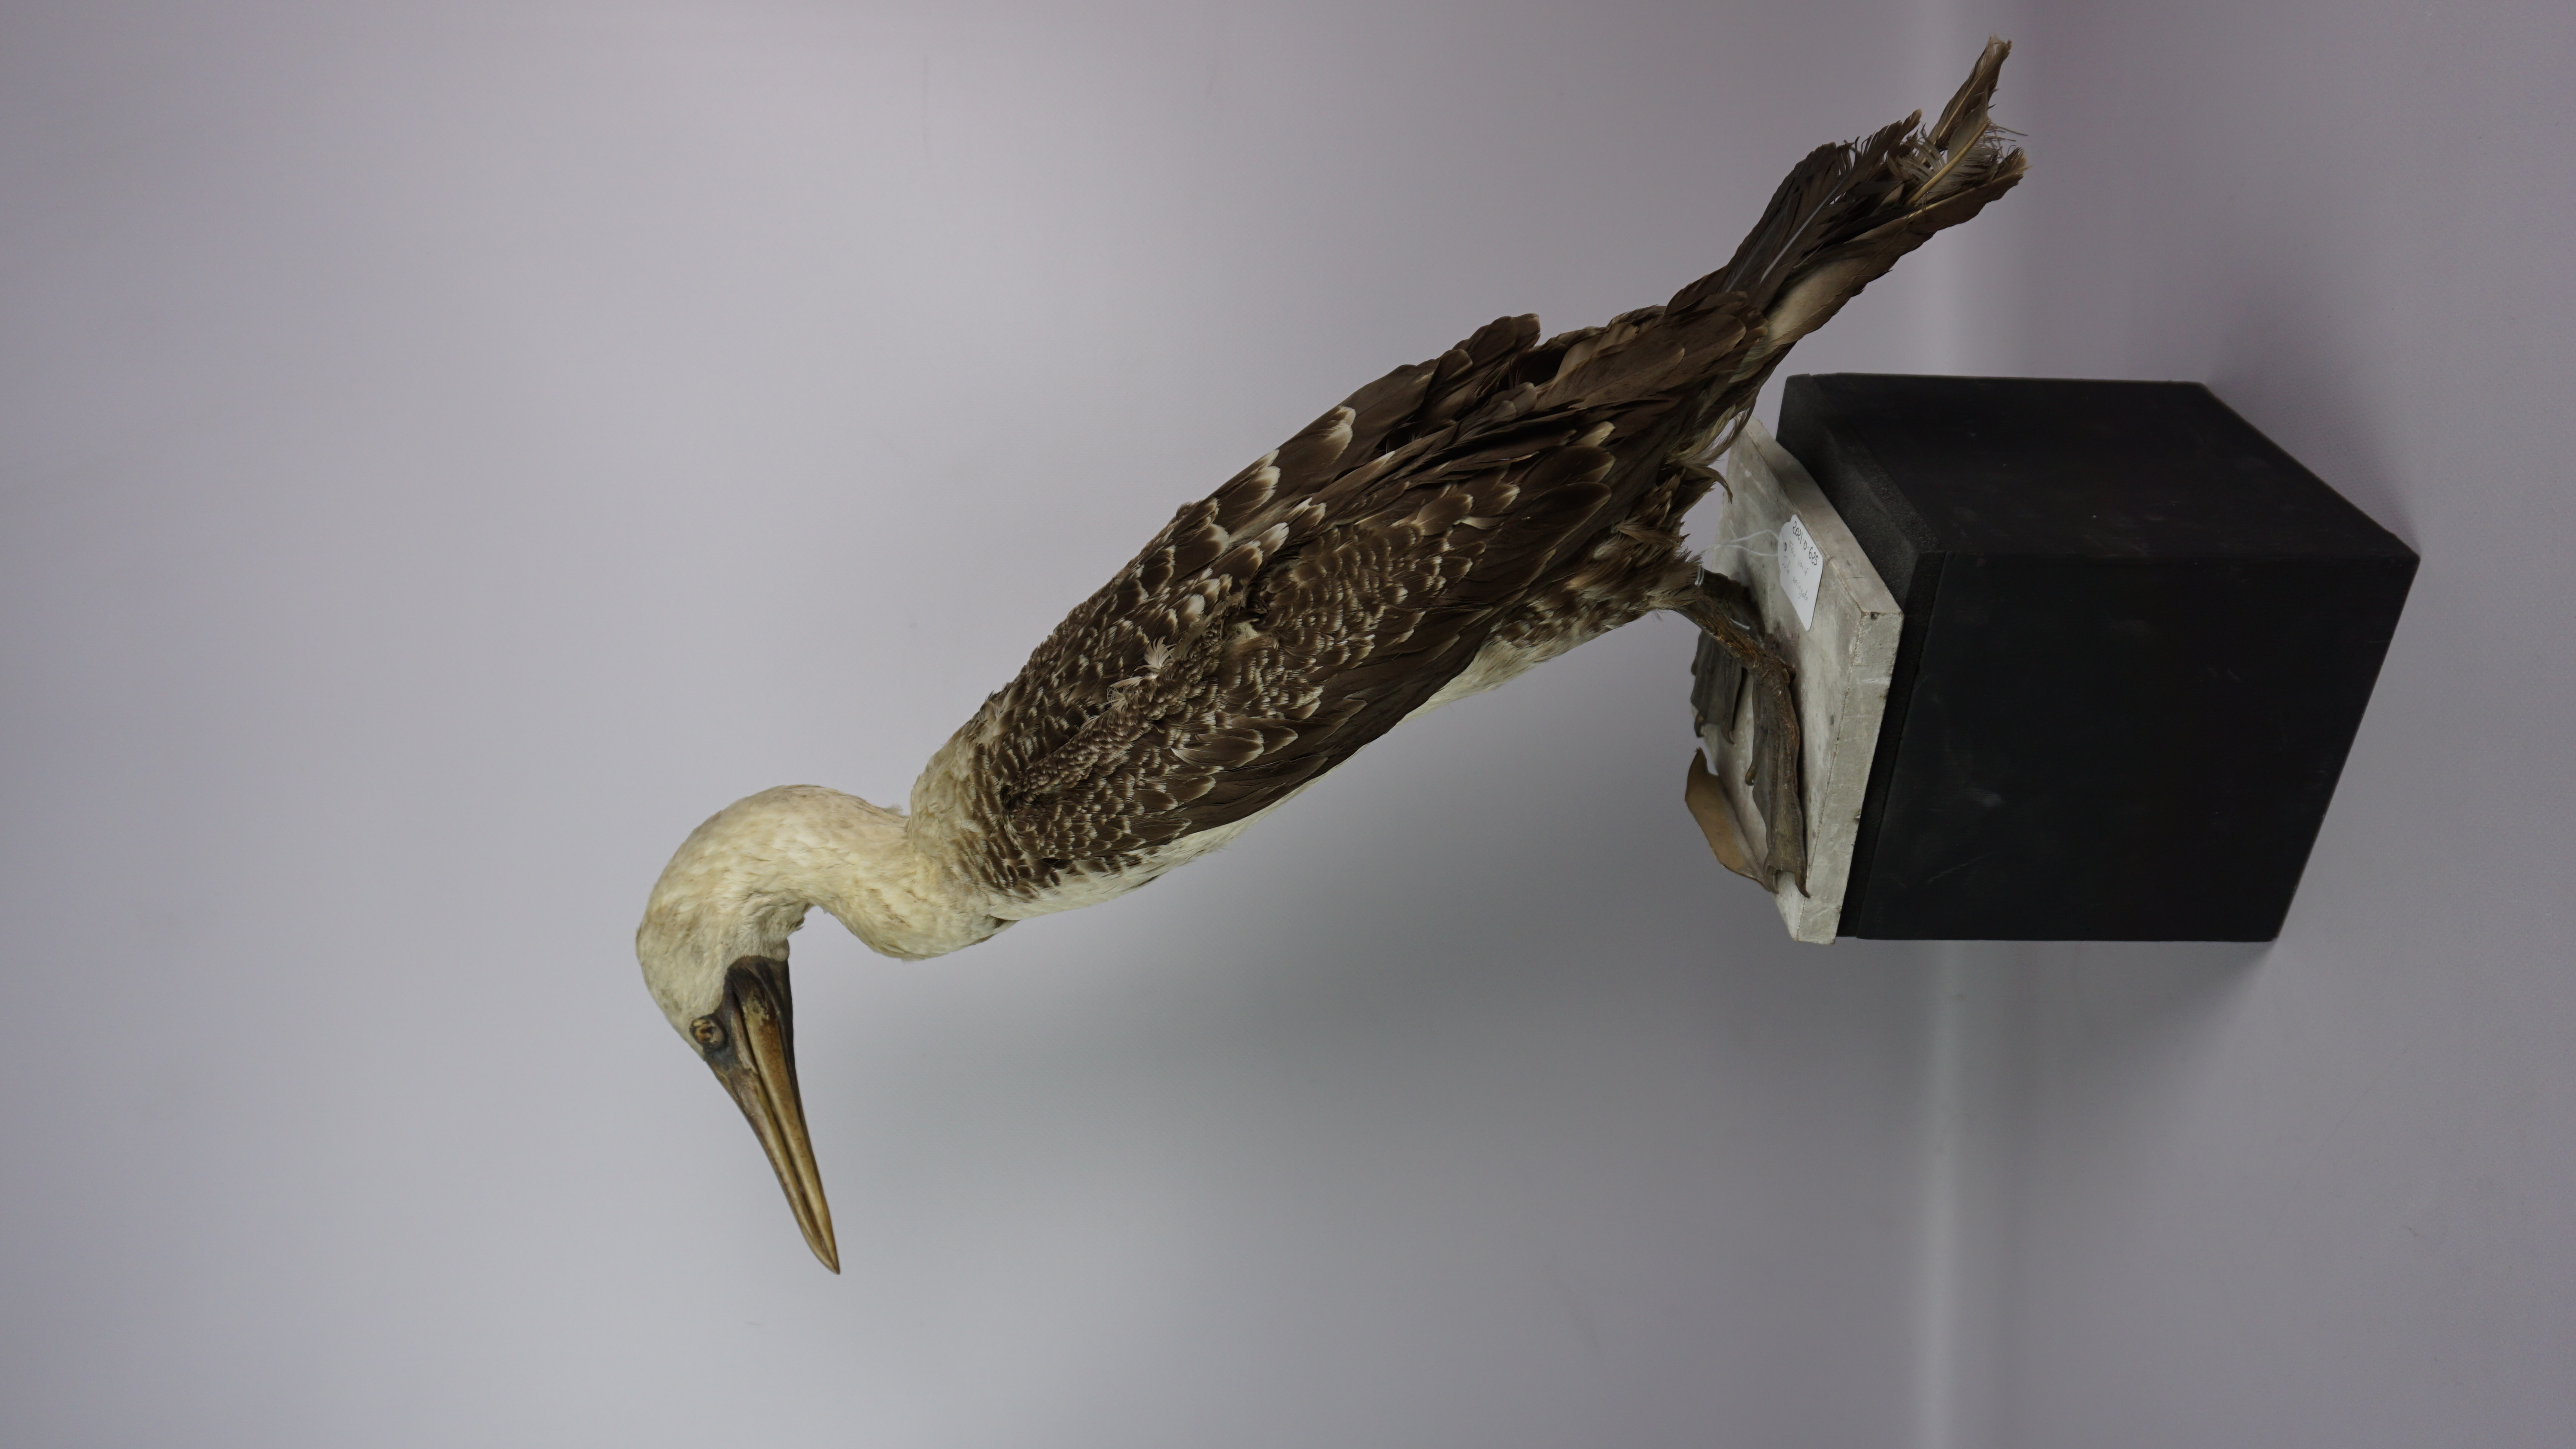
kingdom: Animalia
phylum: Chordata
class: Aves
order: Suliformes
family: Sulidae
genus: Sula
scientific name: Sula variegata
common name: Peruvian booby
